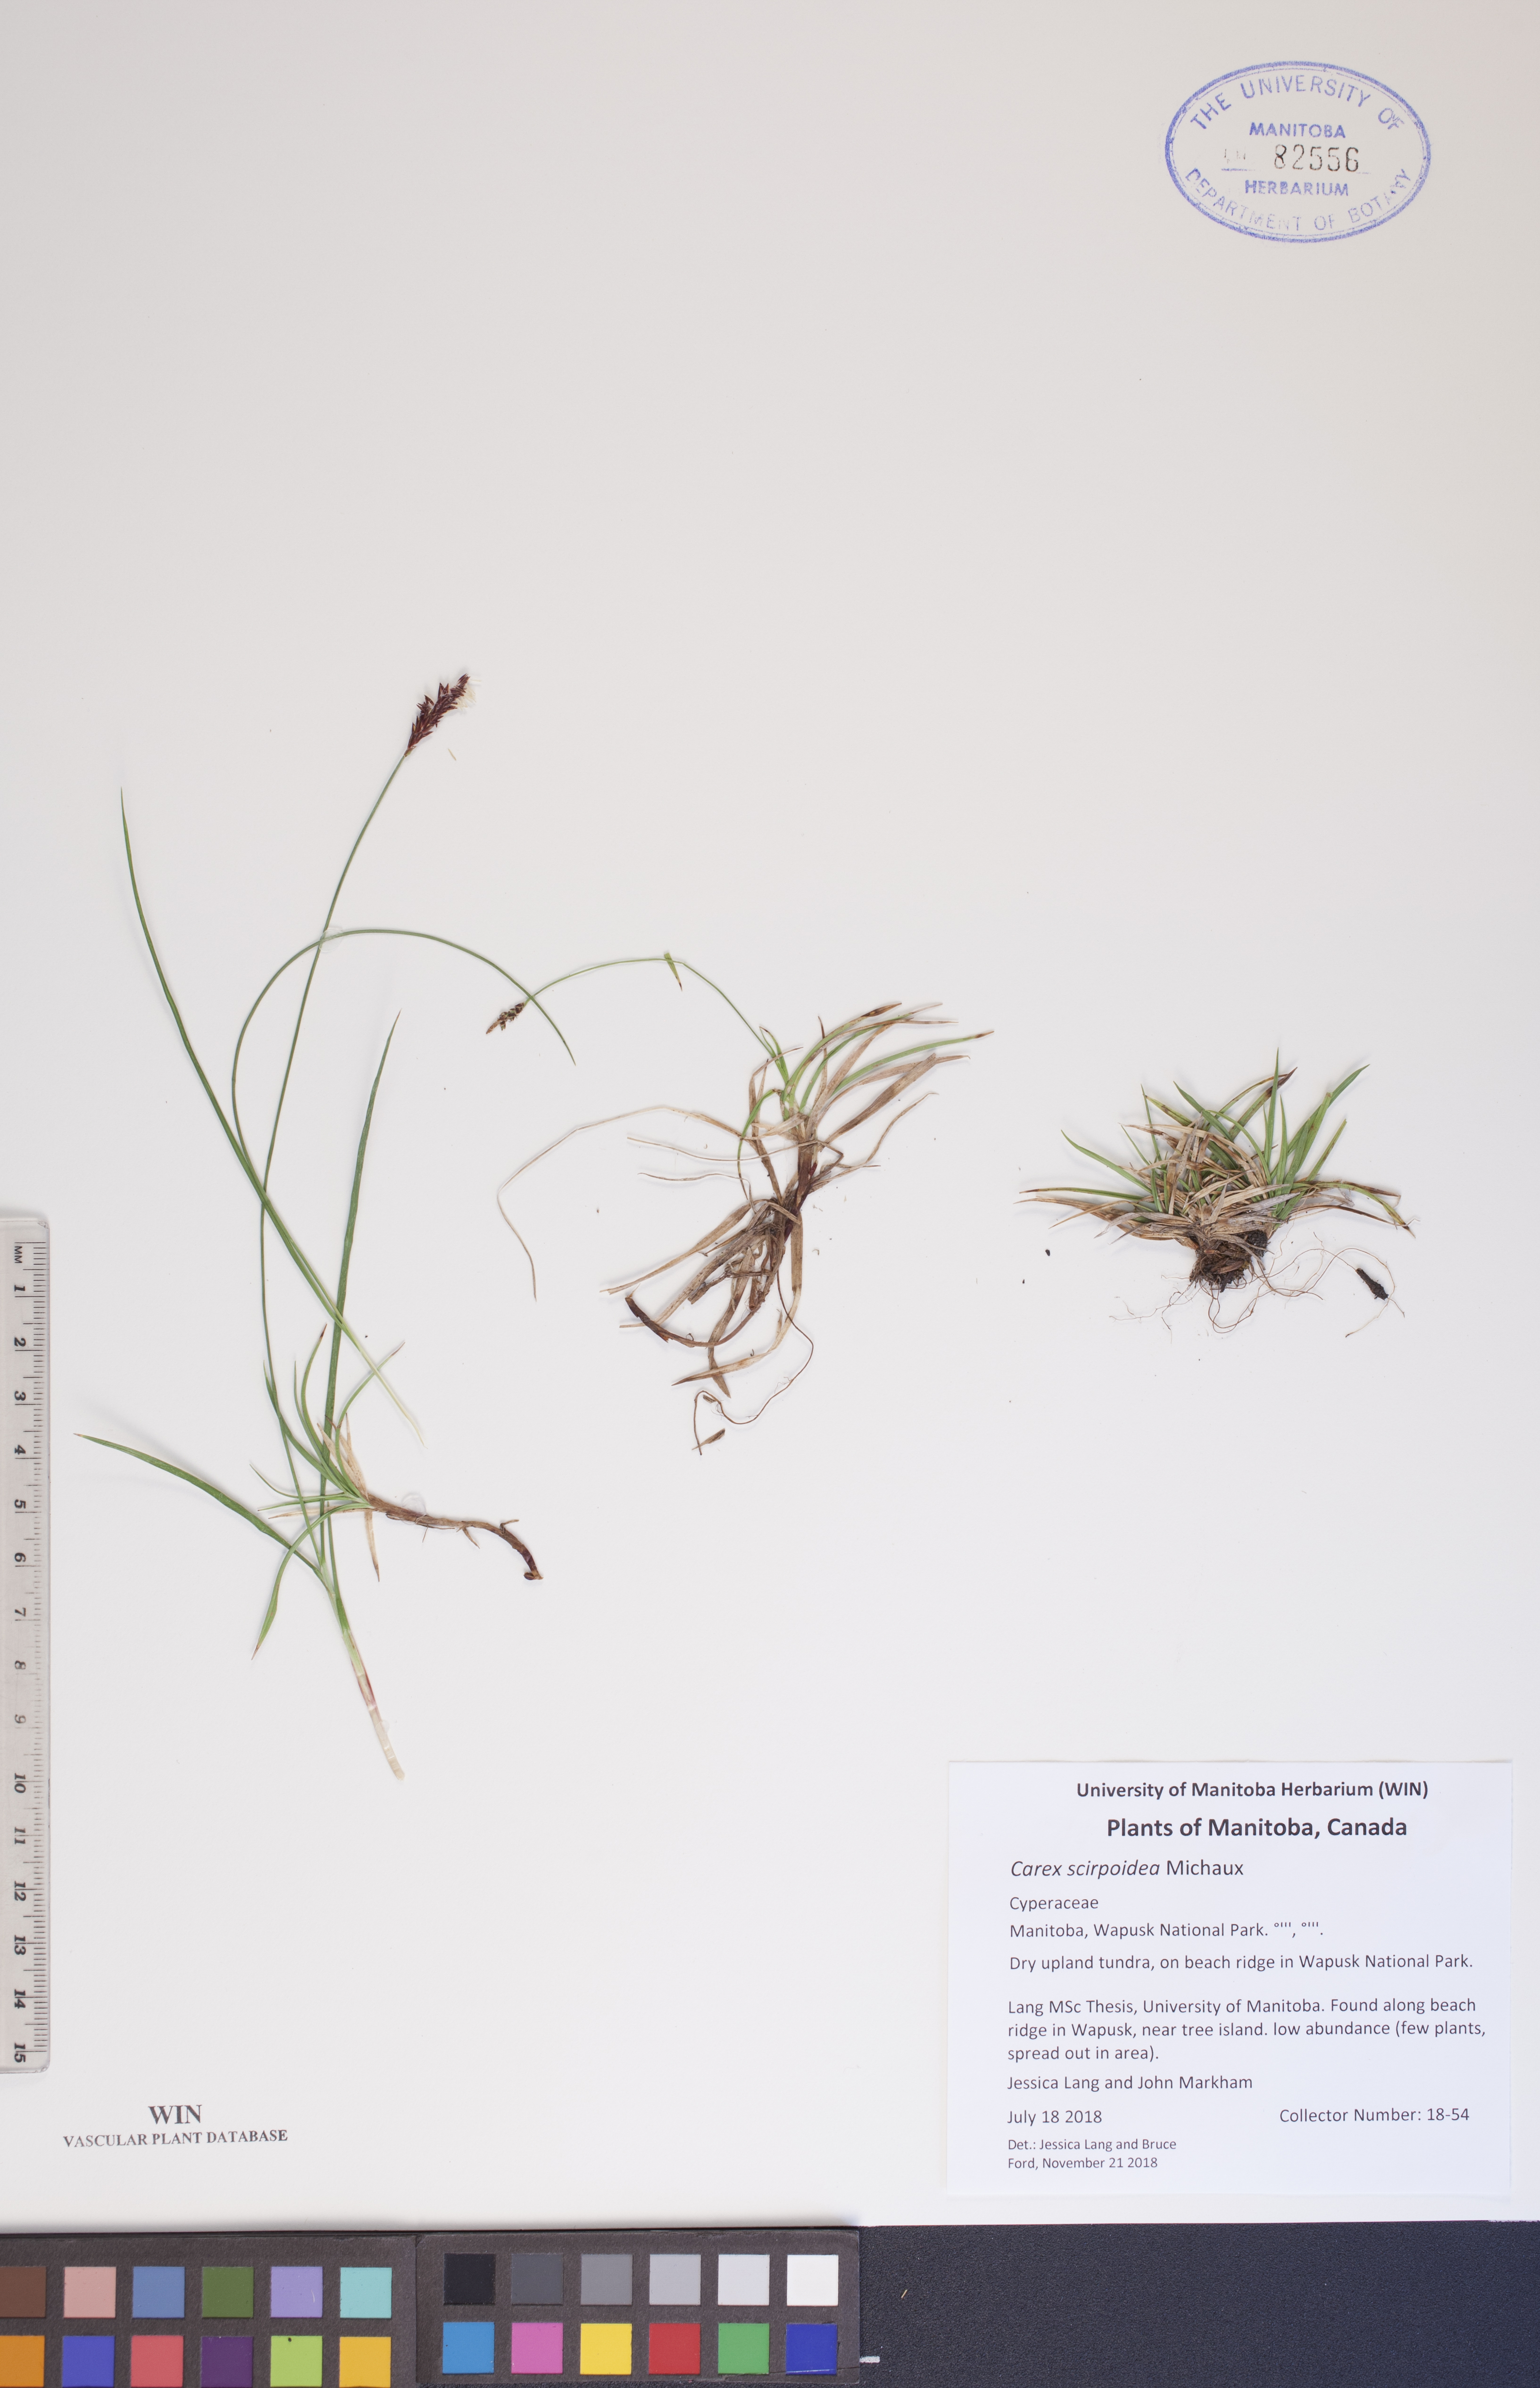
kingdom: Plantae
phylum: Tracheophyta
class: Liliopsida
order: Poales
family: Cyperaceae
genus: Carex
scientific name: Carex scirpoidea
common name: Canada single-spike sedge
